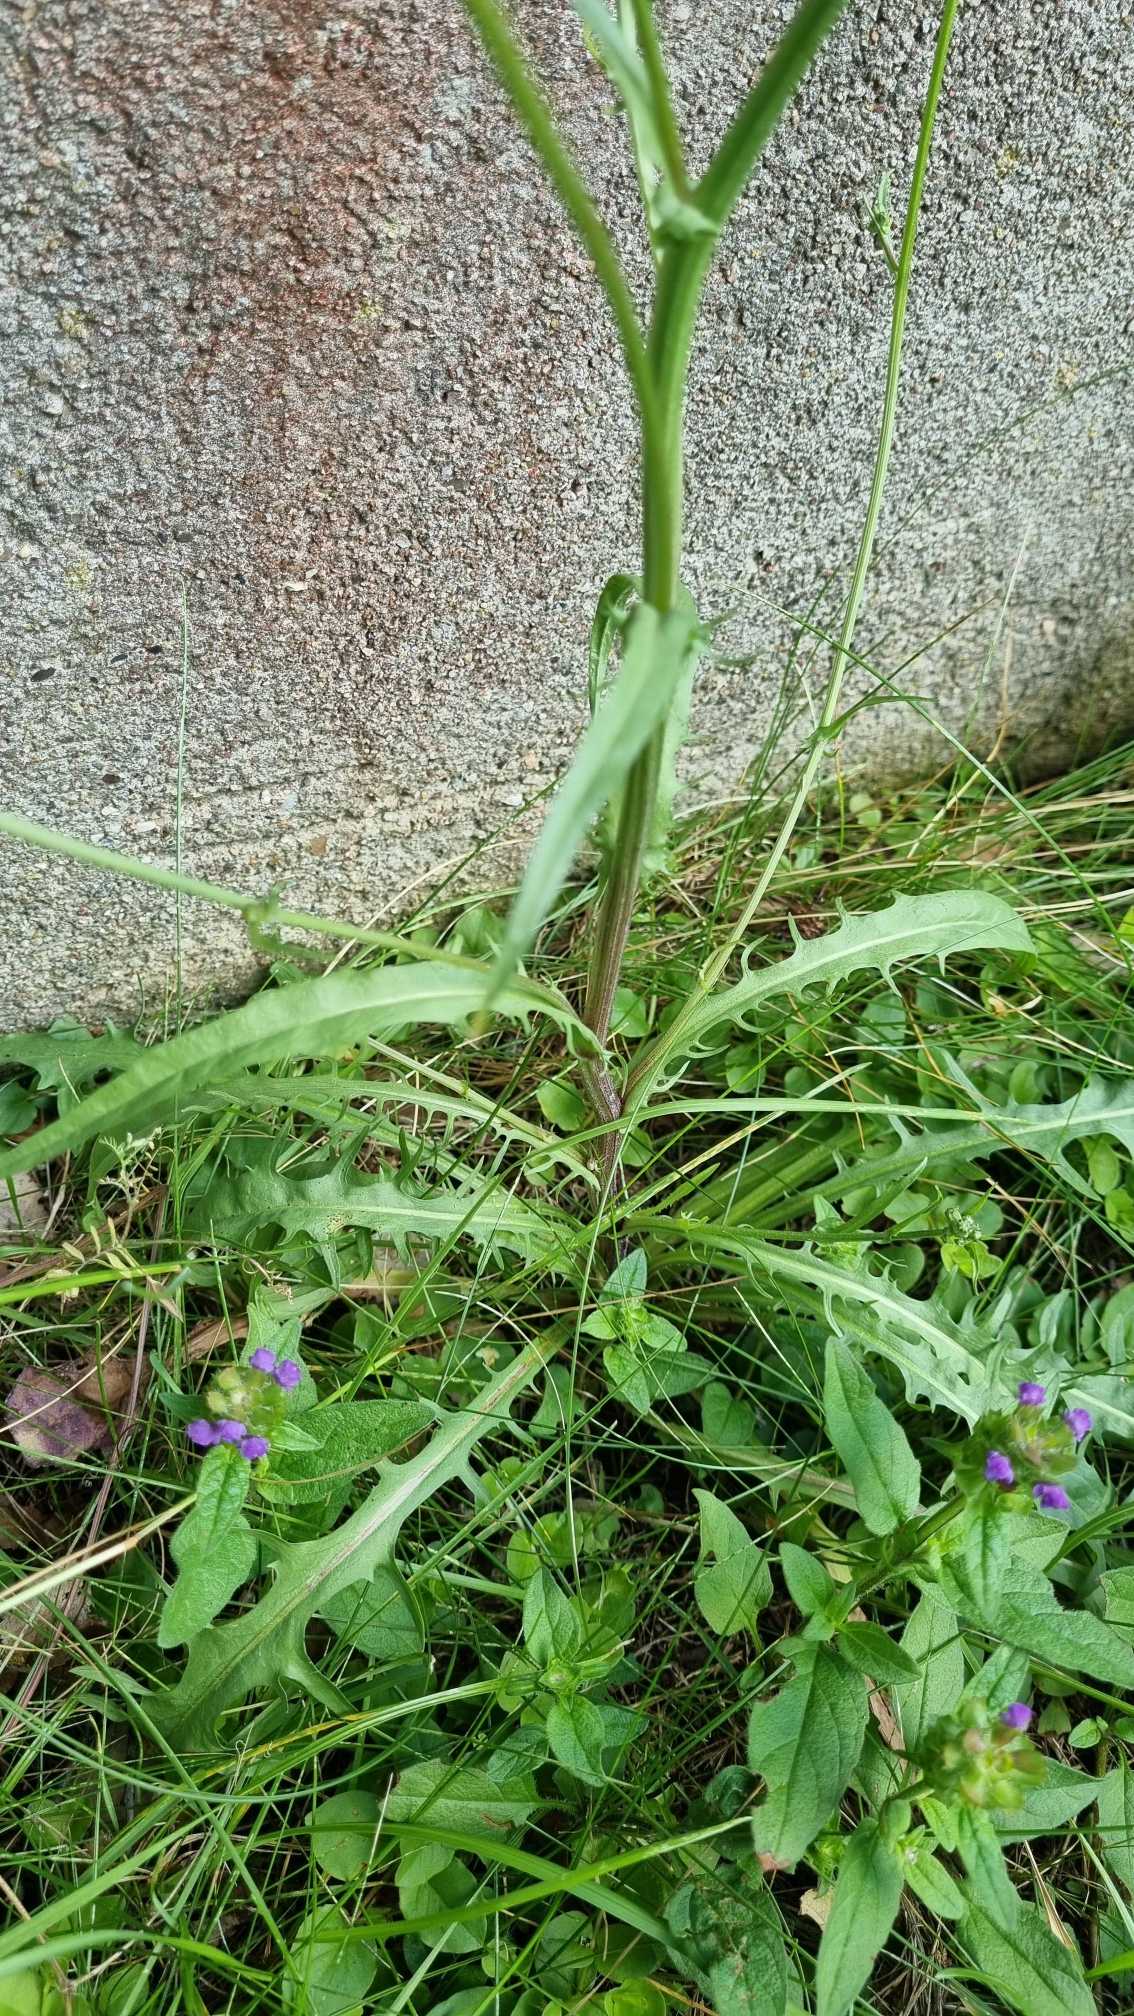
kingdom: Plantae
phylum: Tracheophyta
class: Magnoliopsida
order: Asterales
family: Asteraceae
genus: Crepis
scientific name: Crepis capillaris
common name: Grøn høgeskæg
